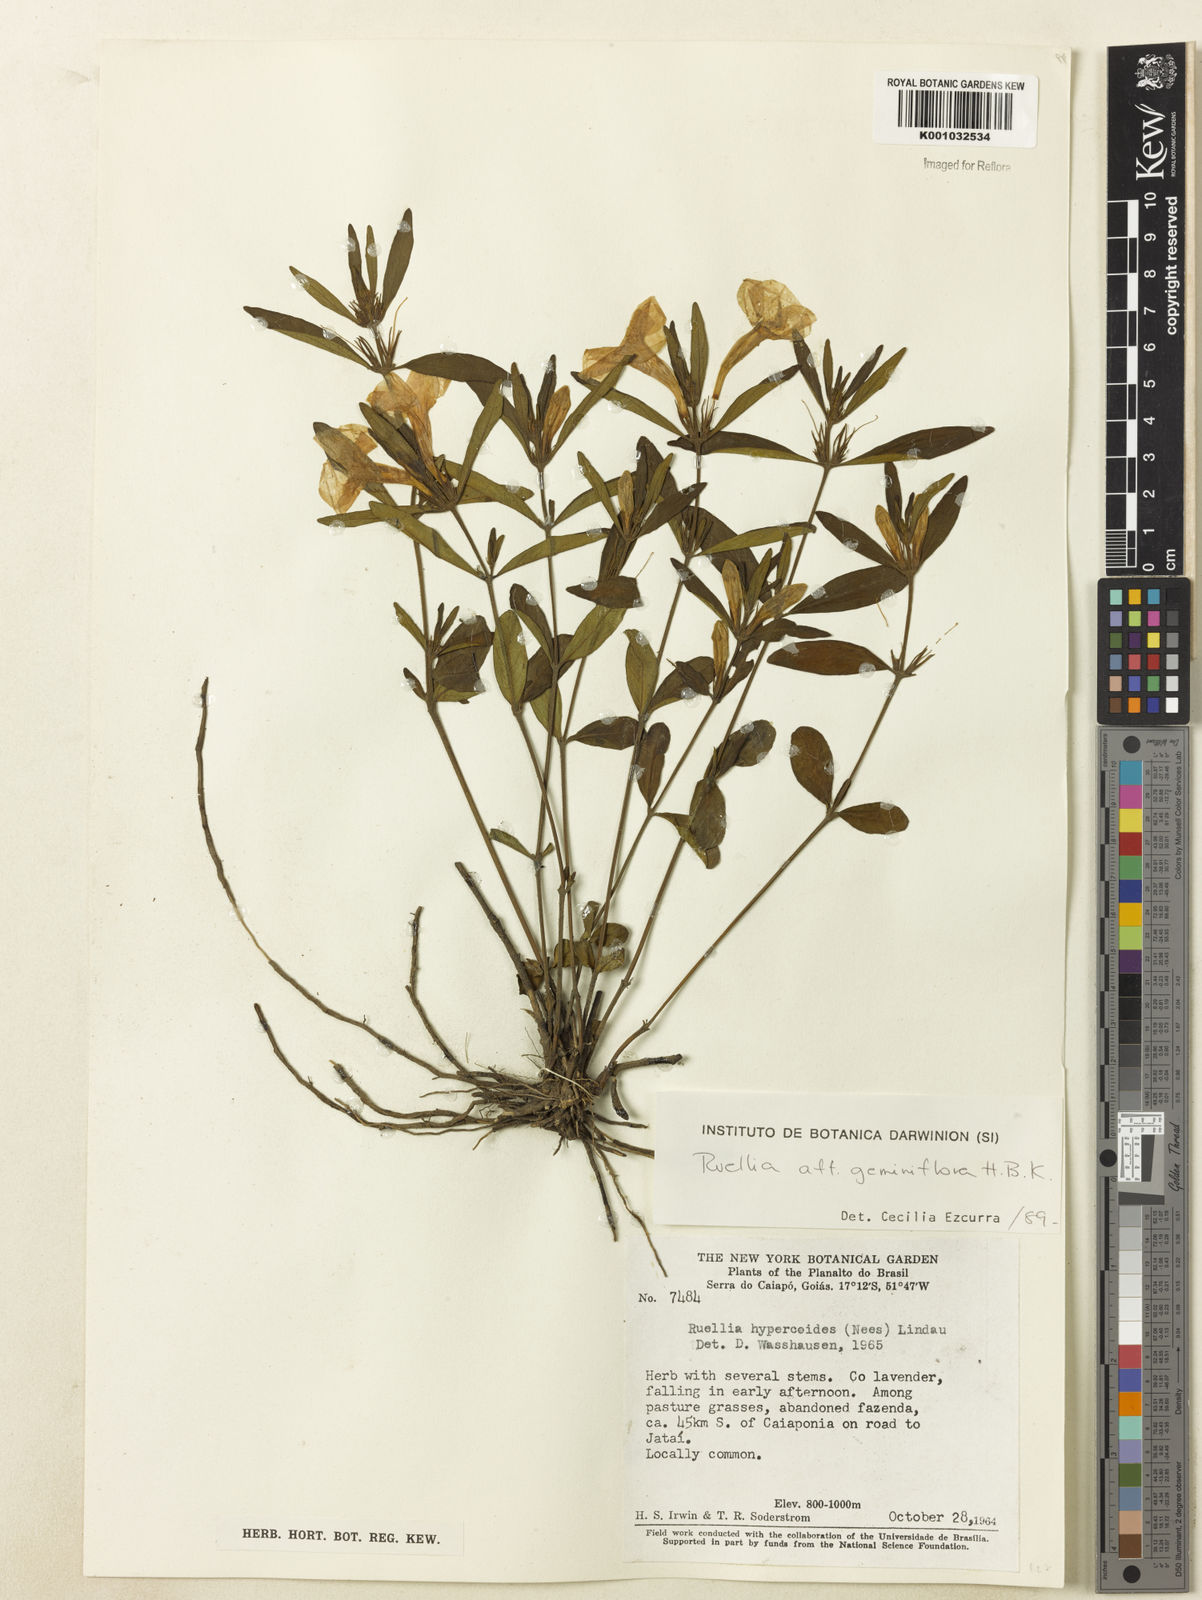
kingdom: Plantae
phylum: Tracheophyta
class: Magnoliopsida
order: Lamiales
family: Acanthaceae
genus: Ruellia
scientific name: Ruellia magniflora
